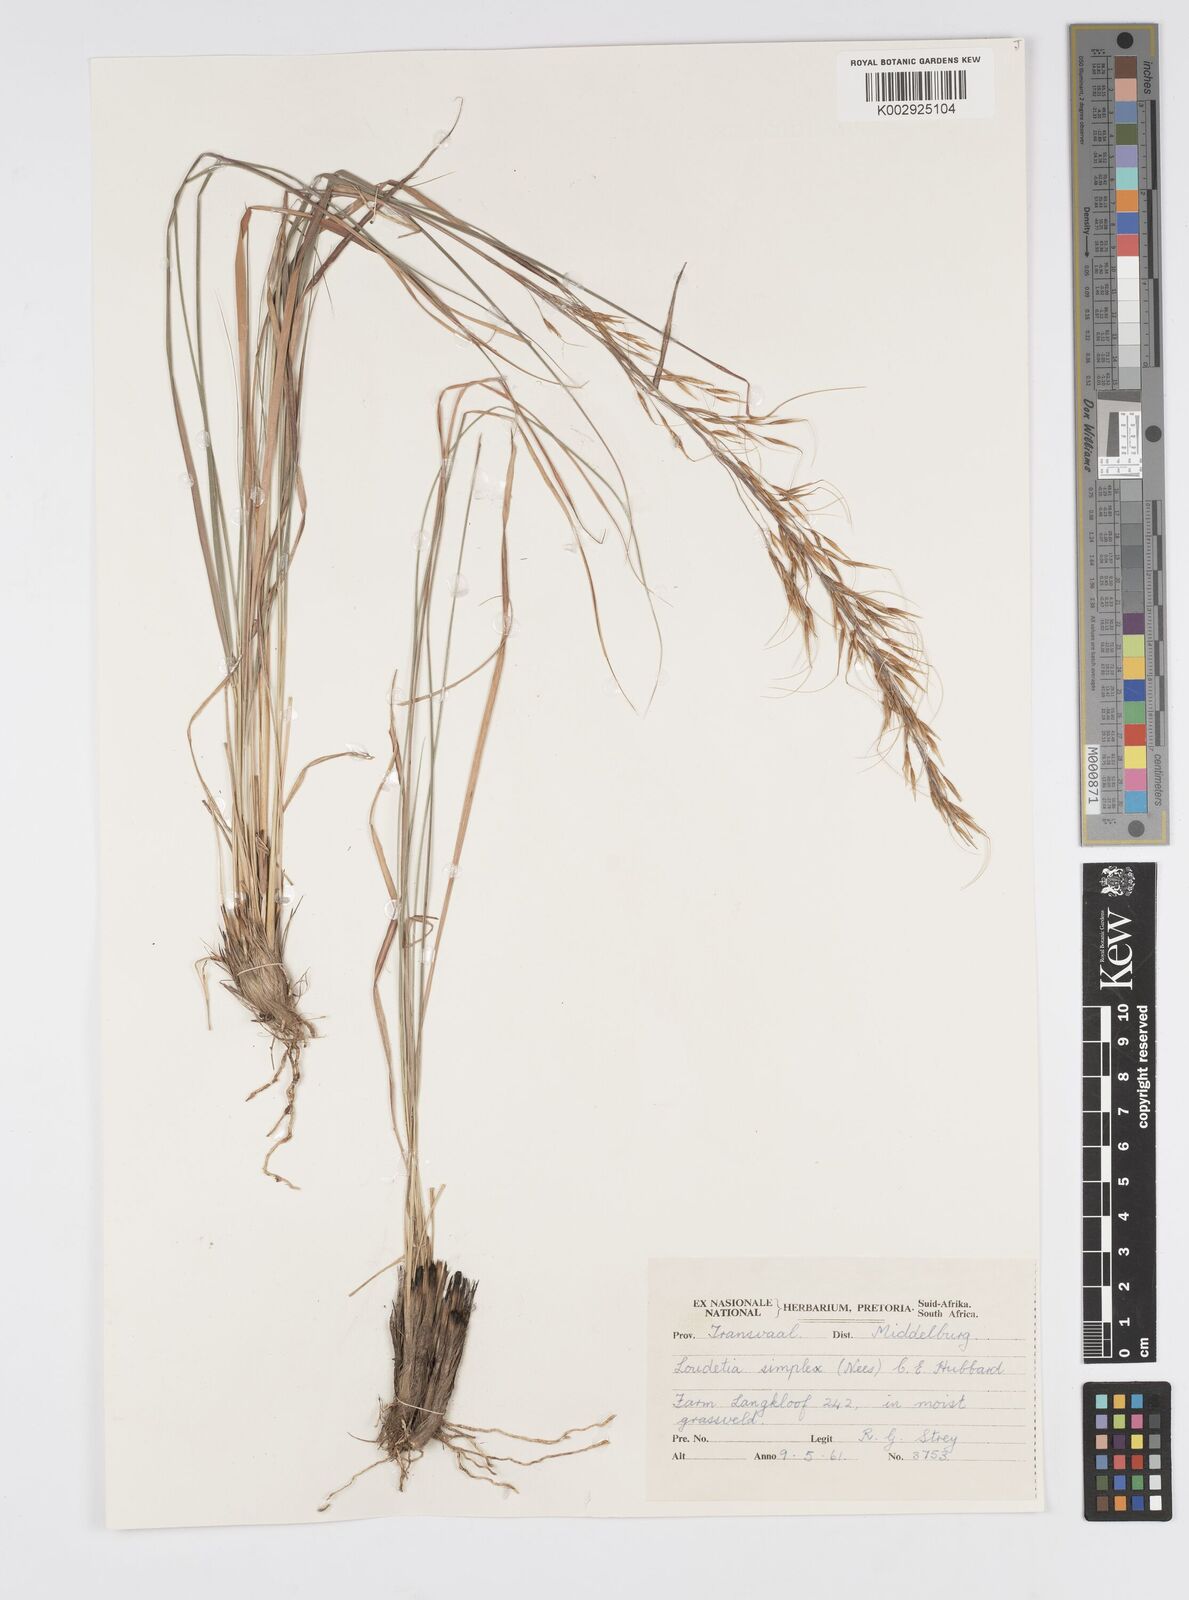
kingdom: Plantae
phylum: Tracheophyta
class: Liliopsida
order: Poales
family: Poaceae
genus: Loudetia
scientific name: Loudetia simplex
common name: Common russet grass
